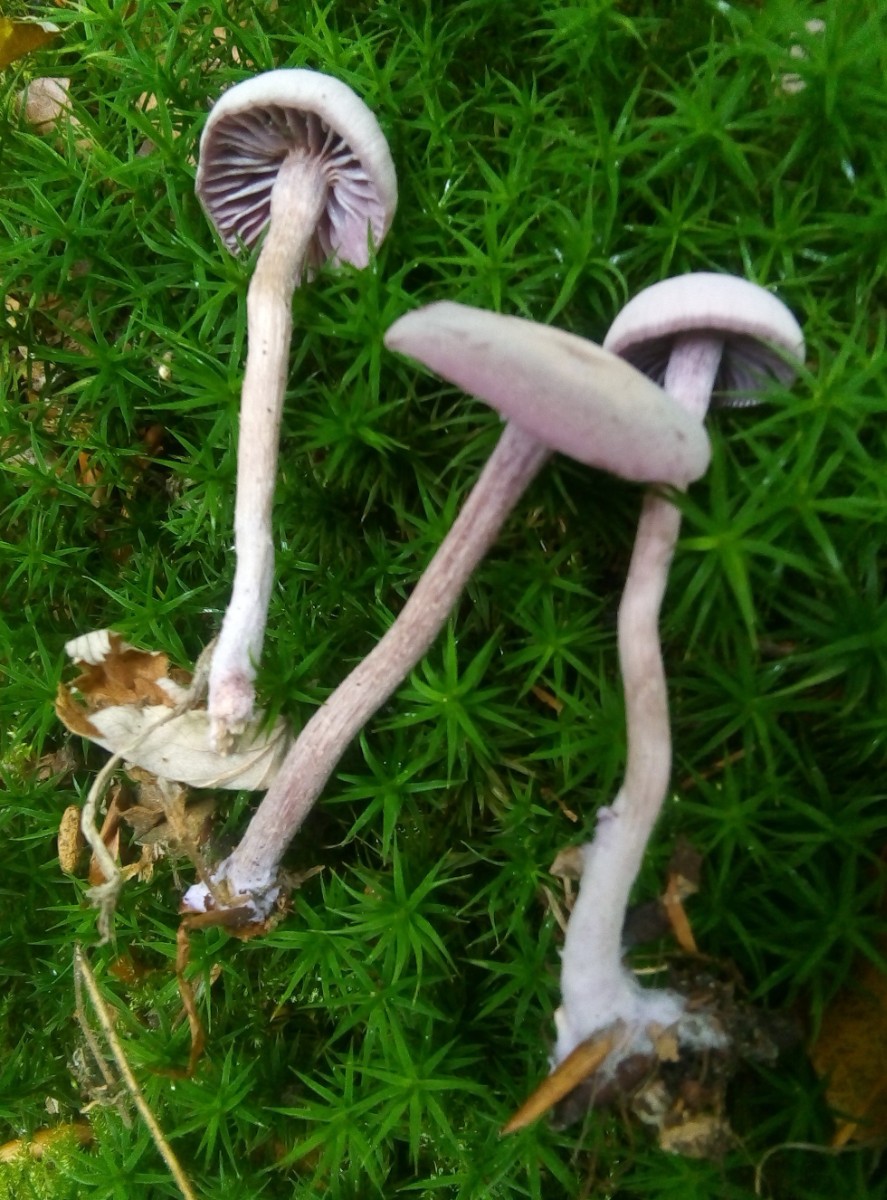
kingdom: Fungi
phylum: Basidiomycota
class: Agaricomycetes
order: Agaricales
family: Hydnangiaceae
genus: Laccaria
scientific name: Laccaria amethystina
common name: violet ametysthat
